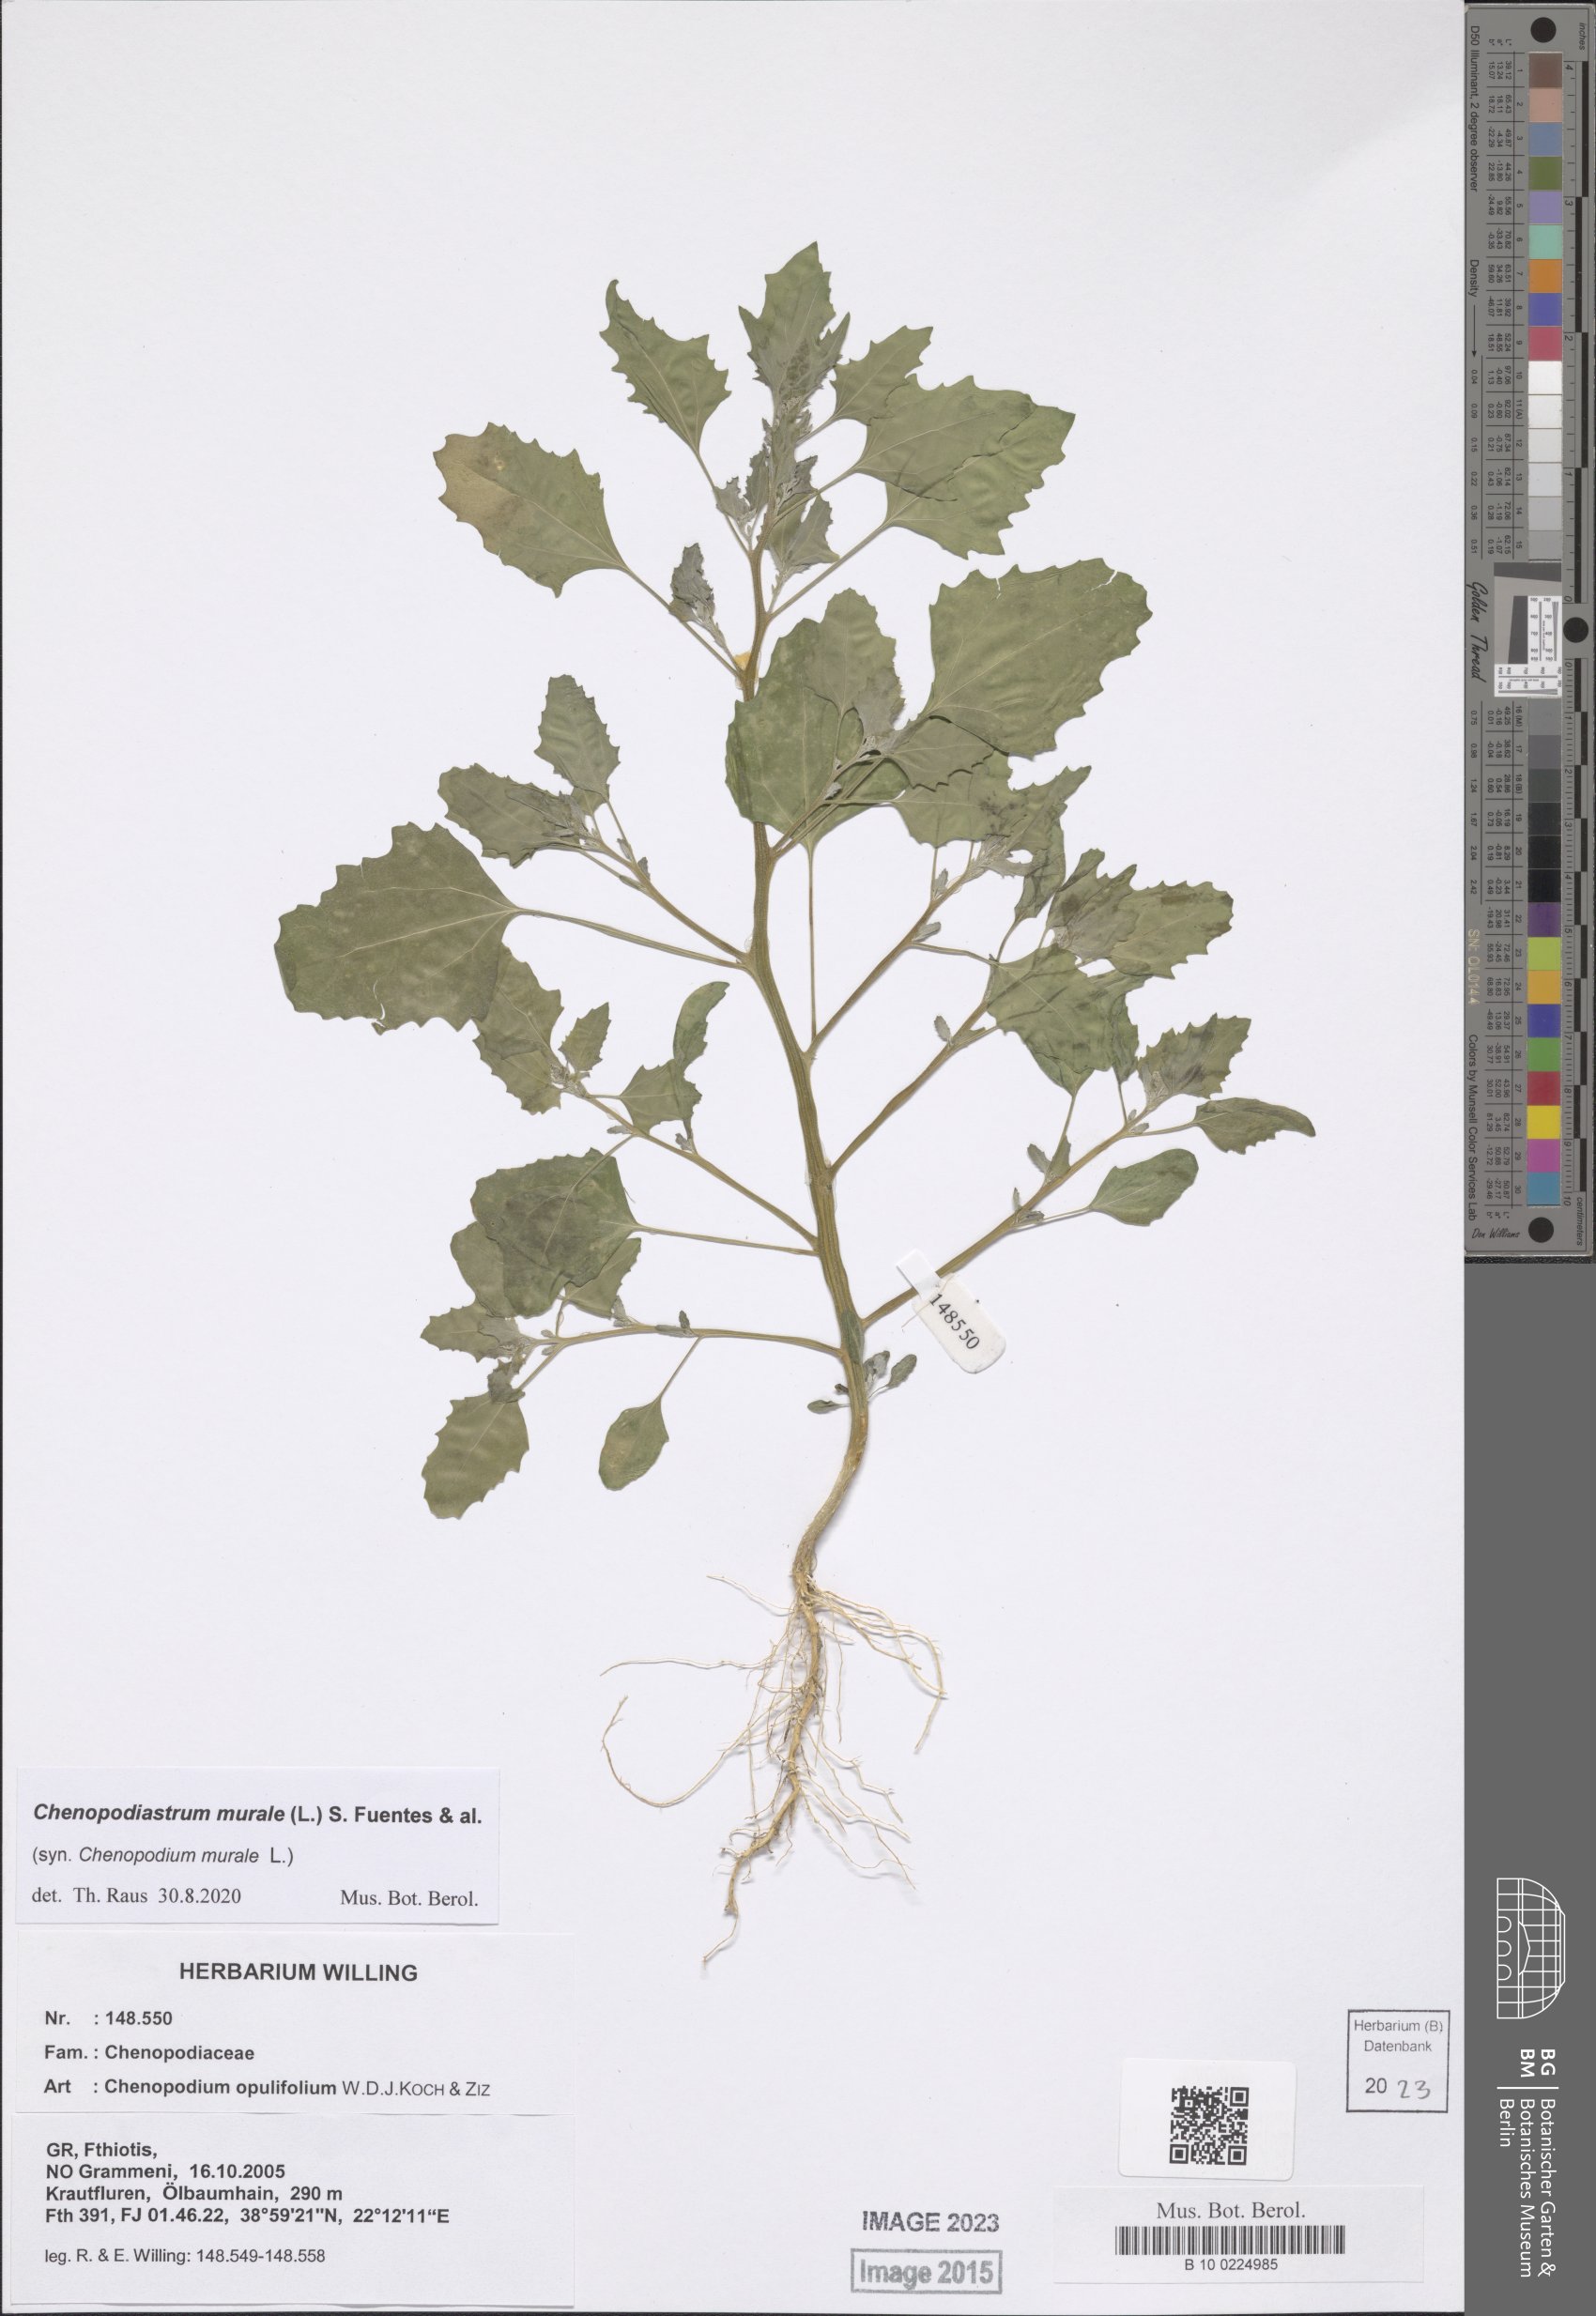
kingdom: Plantae
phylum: Tracheophyta
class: Magnoliopsida
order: Caryophyllales
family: Amaranthaceae
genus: Chenopodiastrum
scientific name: Chenopodiastrum murale
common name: Sowbane
